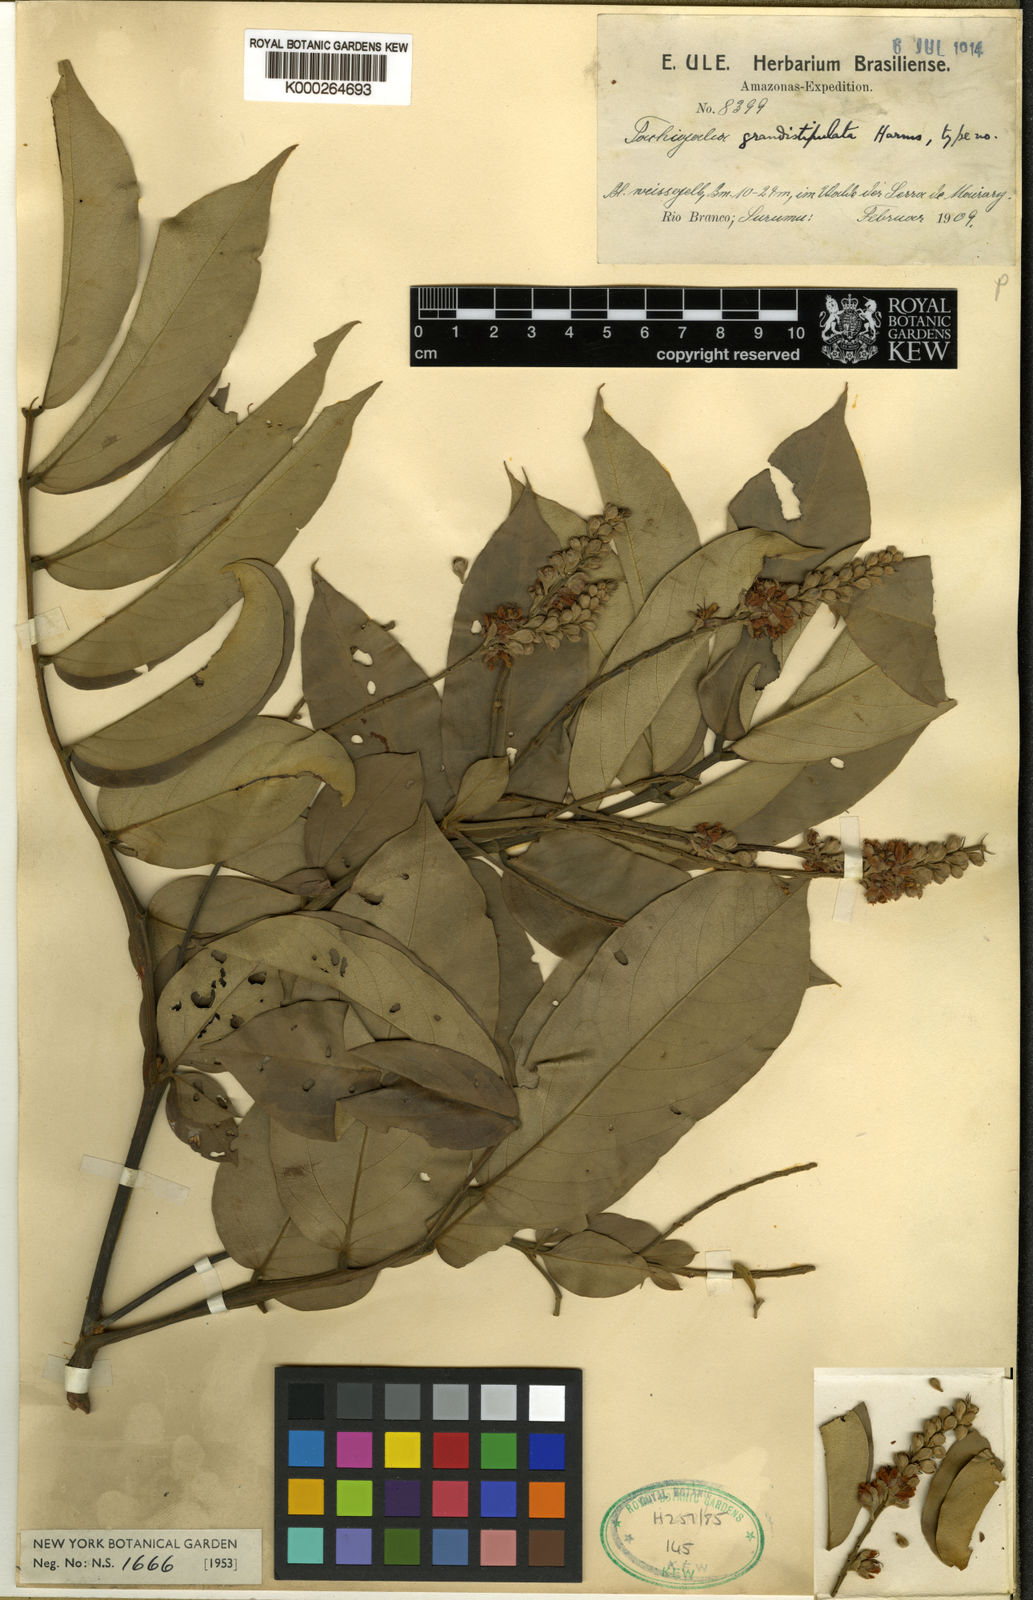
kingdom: Plantae
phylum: Tracheophyta
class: Magnoliopsida
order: Fabales
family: Fabaceae
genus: Tachigali
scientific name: Tachigali grandistipulata
